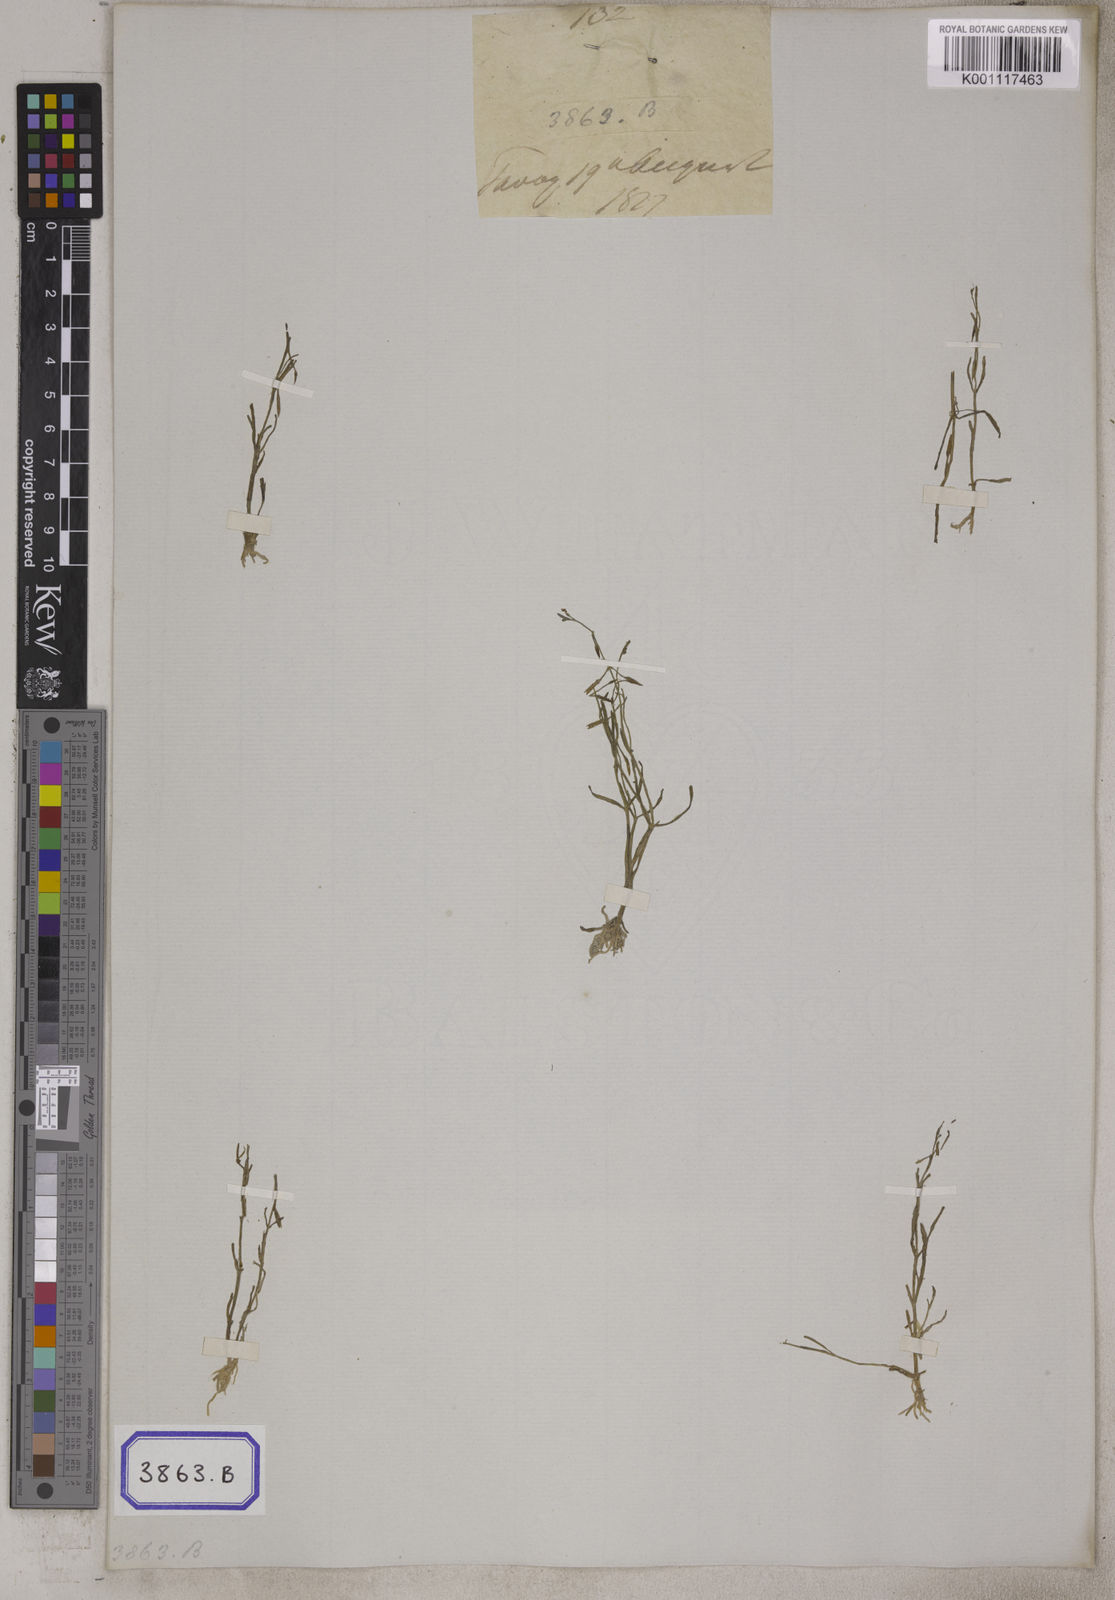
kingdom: Plantae
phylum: Tracheophyta
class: Magnoliopsida
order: Lamiales
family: Linderniaceae
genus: Bonnaya
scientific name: Bonnaya tenuifolia
